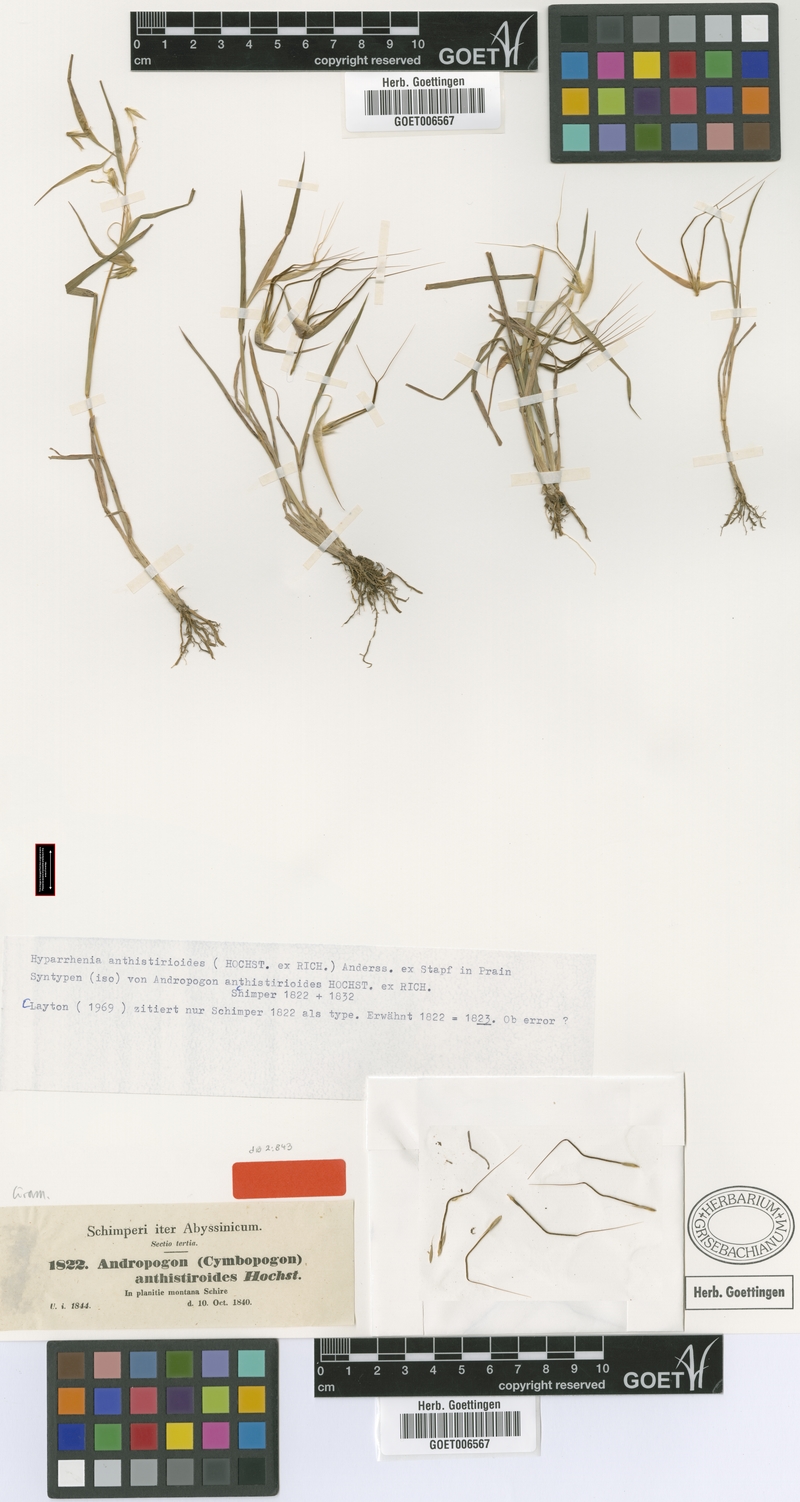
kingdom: Plantae
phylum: Tracheophyta
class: Liliopsida
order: Poales
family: Poaceae
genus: Hyparrhenia
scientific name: Hyparrhenia anthistirioides
